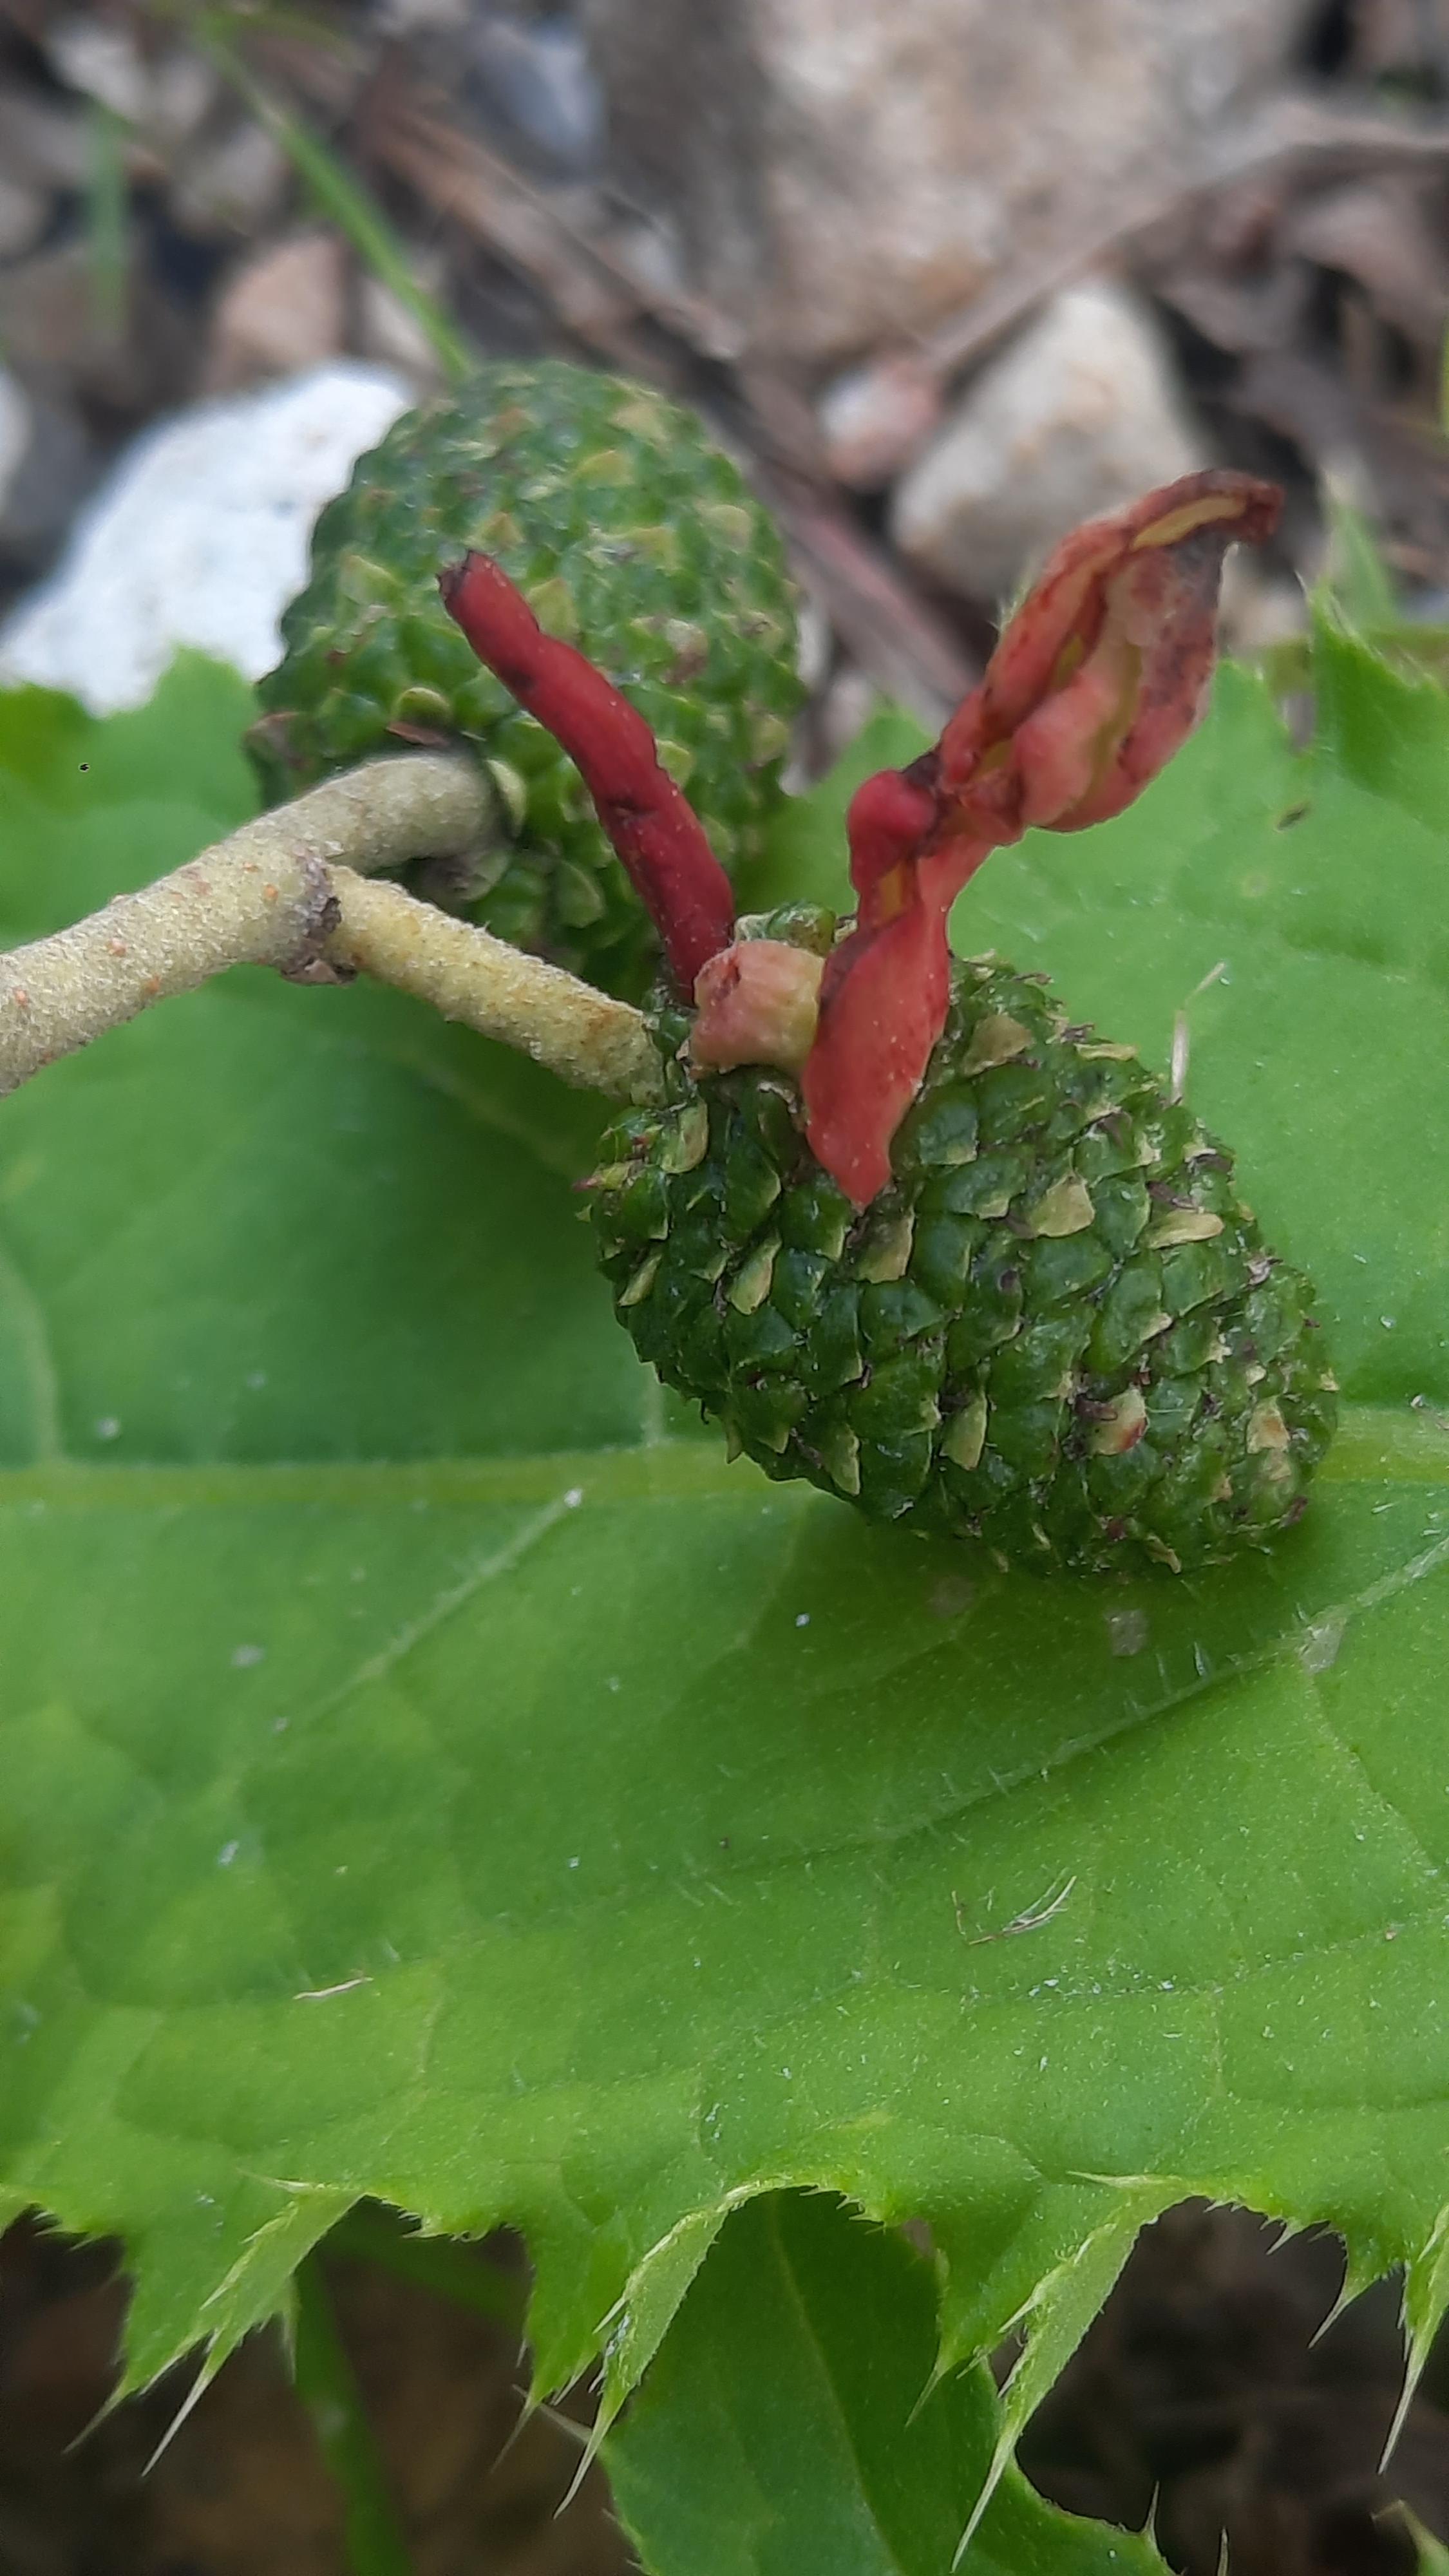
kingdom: Fungi
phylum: Ascomycota
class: Taphrinomycetes
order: Taphrinales
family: Taphrinaceae
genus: Taphrina
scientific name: Taphrina alni
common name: Alder tongue
